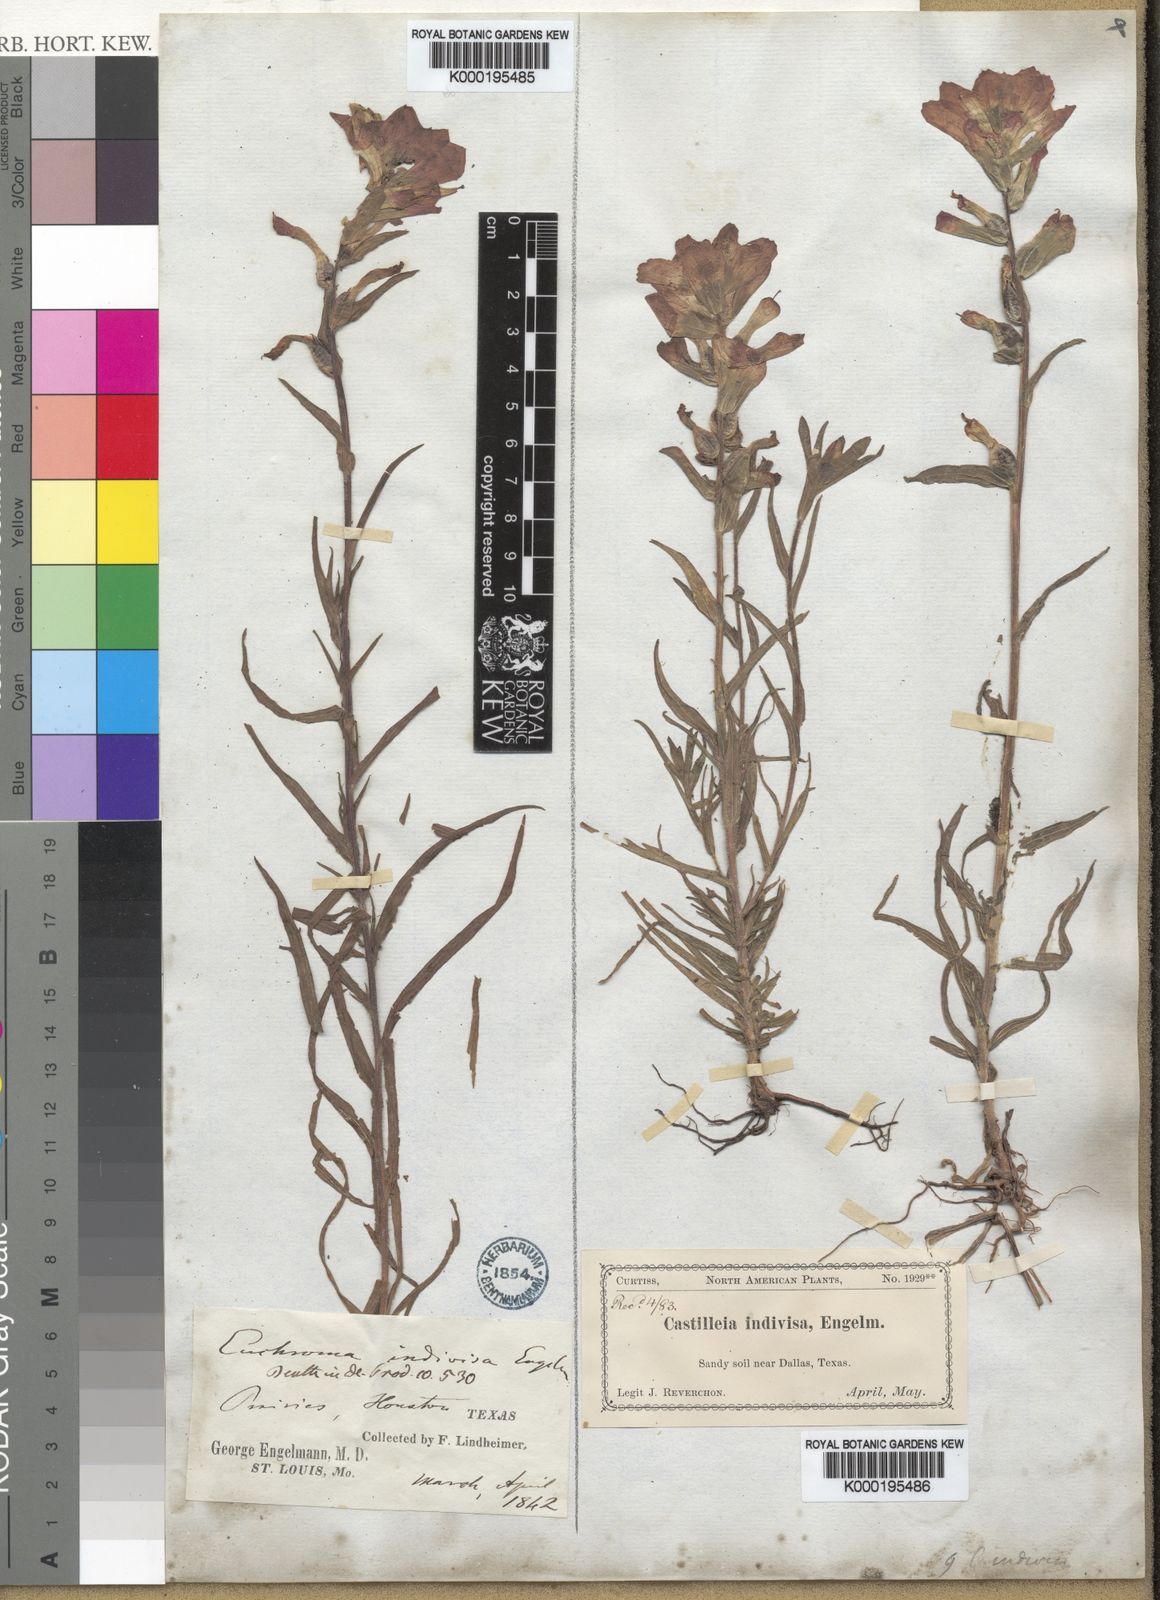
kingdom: Plantae
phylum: Tracheophyta
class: Magnoliopsida
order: Lamiales
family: Orobanchaceae
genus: Castilleja
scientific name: Castilleja indivisa
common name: Texas paintbrush
